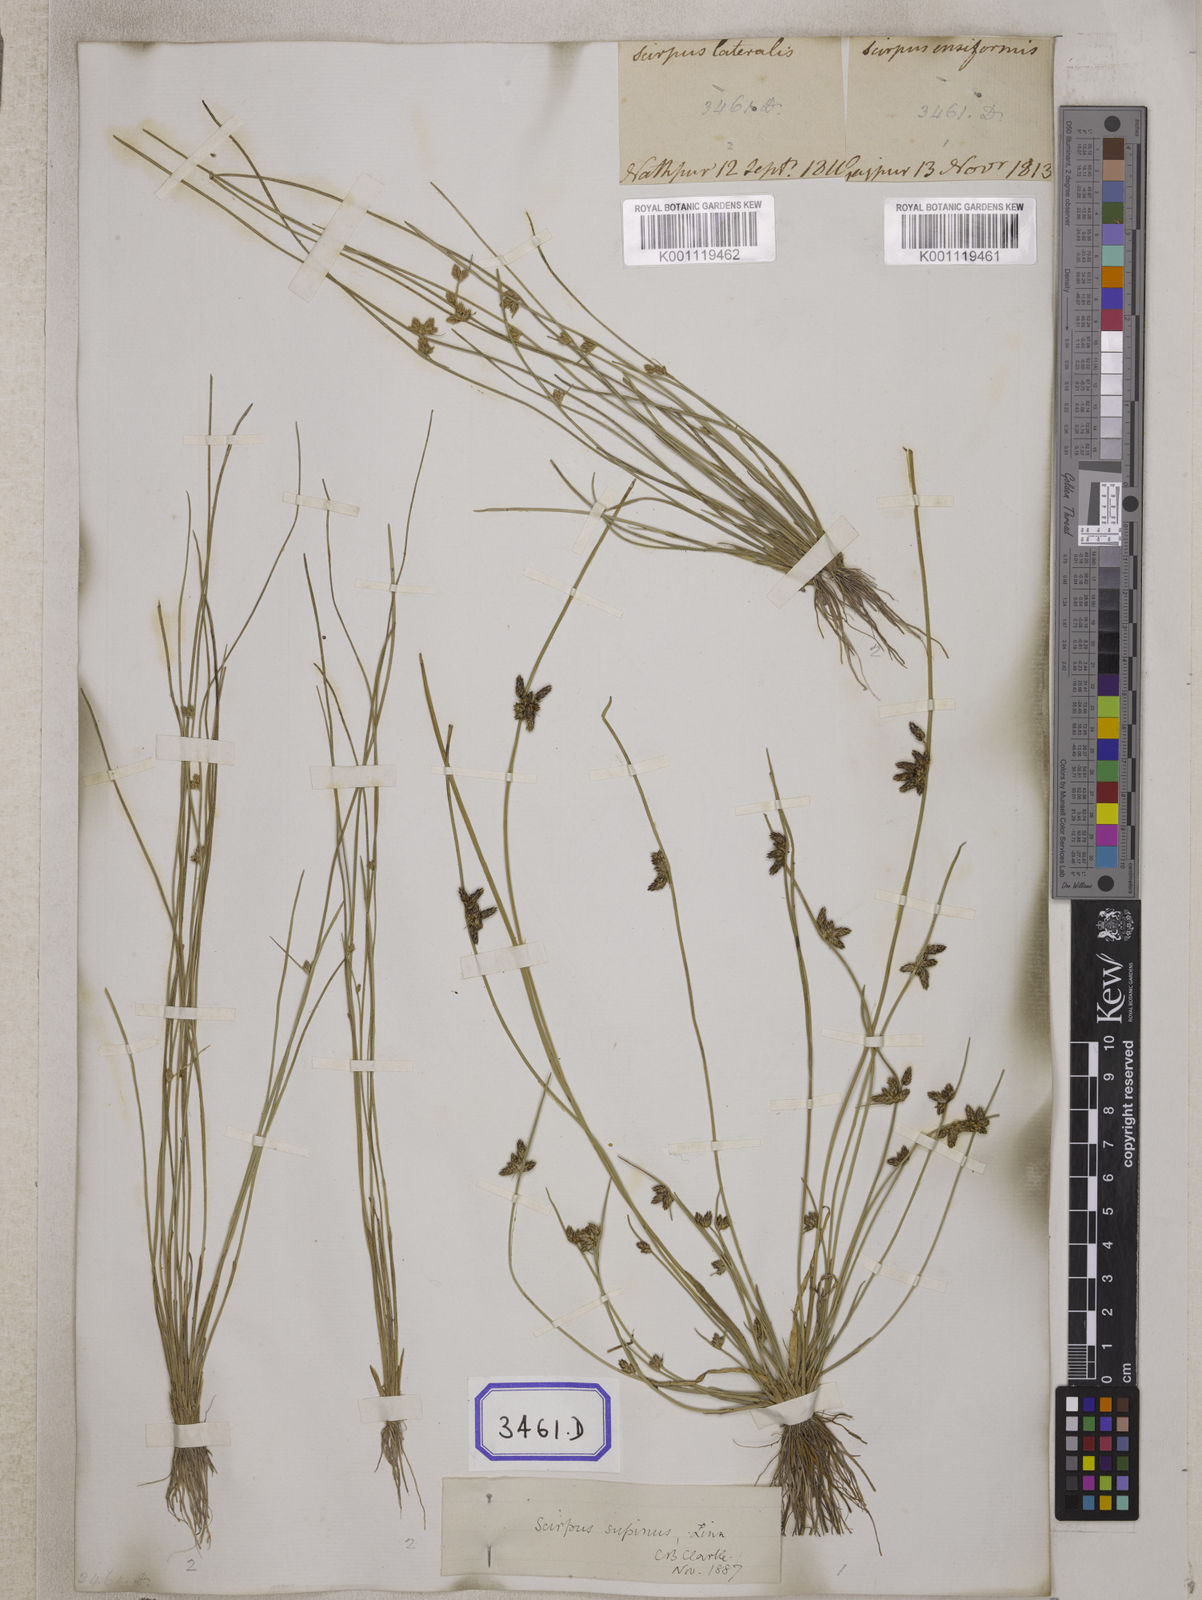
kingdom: Plantae
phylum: Tracheophyta
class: Liliopsida
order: Poales
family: Cyperaceae
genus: Scirpus
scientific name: Scirpus
